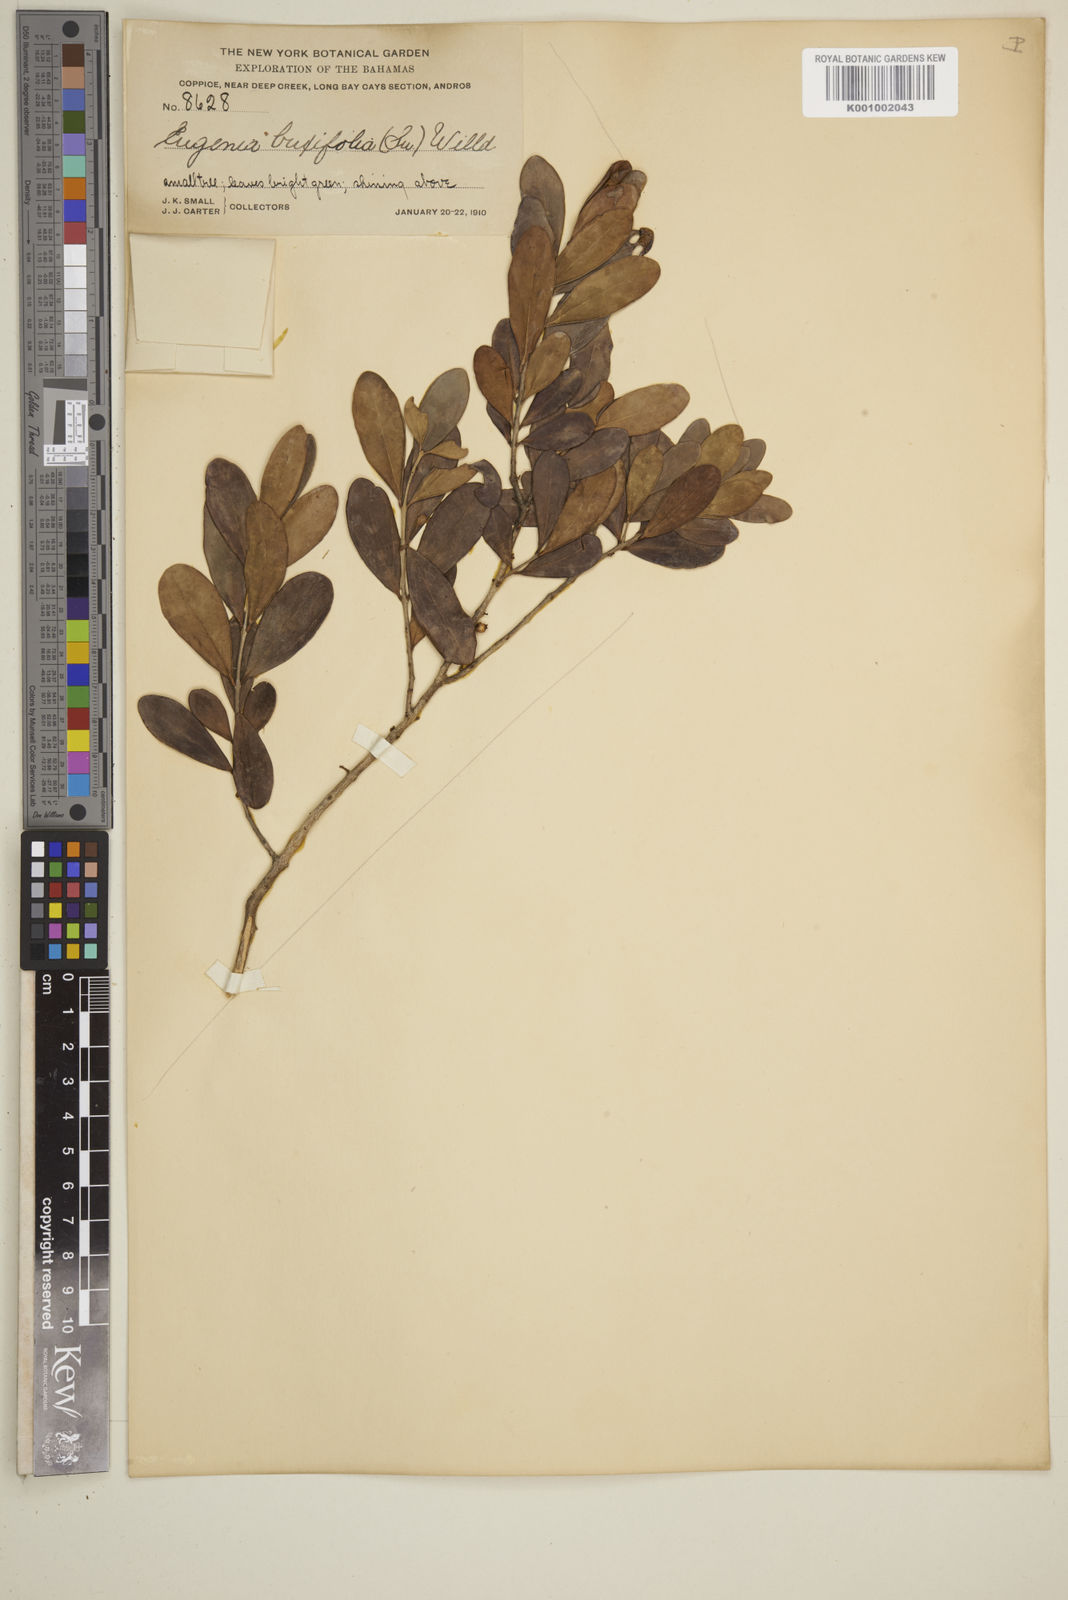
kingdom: Plantae
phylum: Tracheophyta
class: Magnoliopsida
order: Myrtales
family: Myrtaceae
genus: Eugenia
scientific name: Eugenia buxifolia
